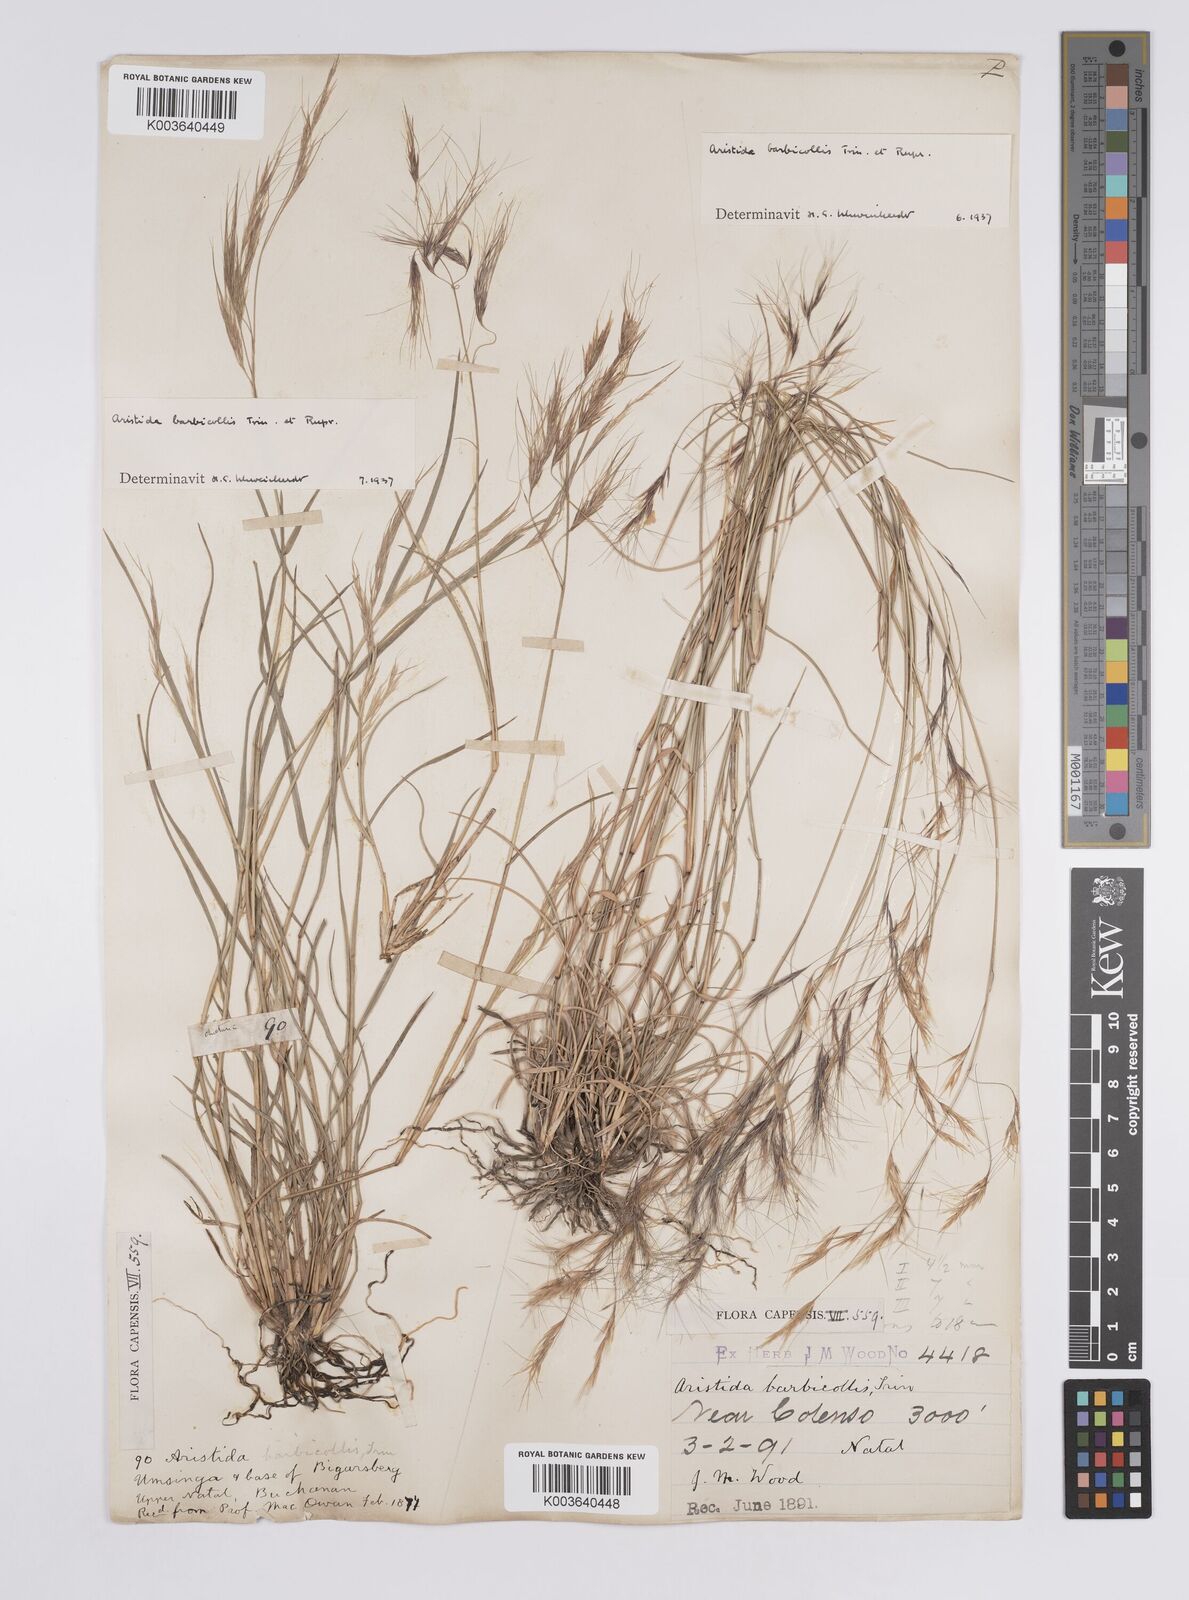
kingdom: Plantae
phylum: Tracheophyta
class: Liliopsida
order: Poales
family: Poaceae
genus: Aristida
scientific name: Aristida barbicollis
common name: Spreading prickle grass
